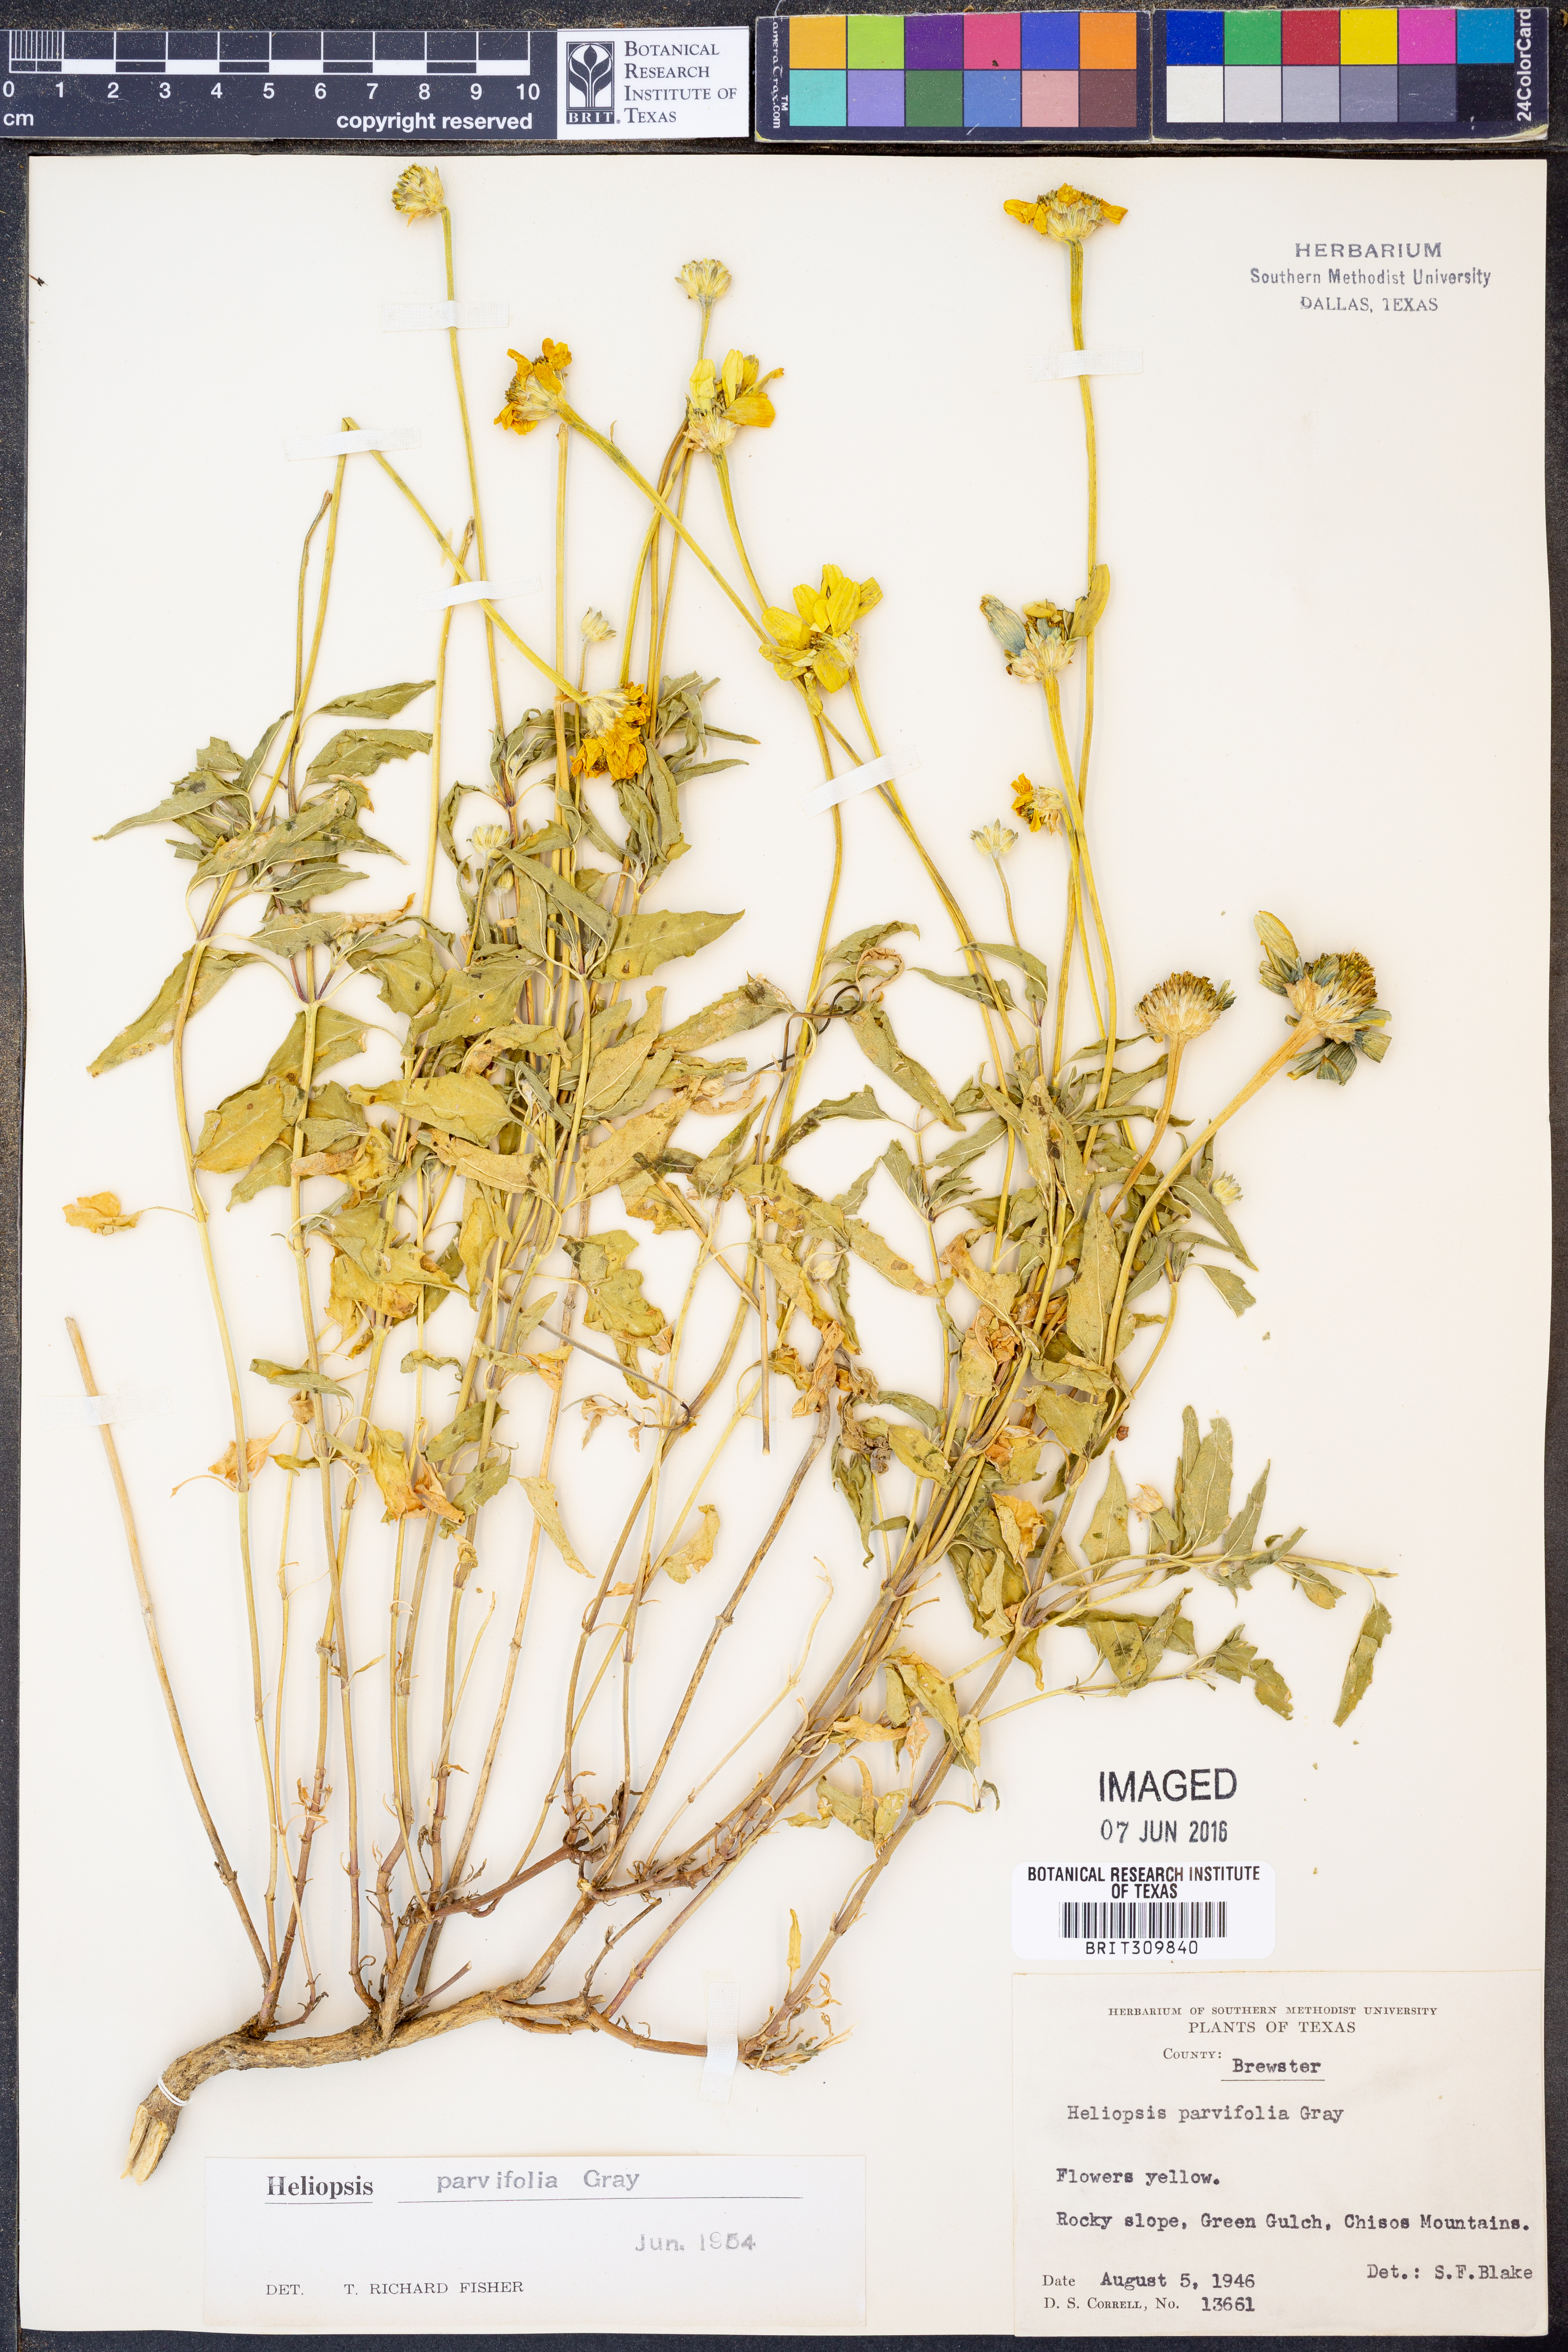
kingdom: Plantae
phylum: Tracheophyta
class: Magnoliopsida
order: Asterales
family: Asteraceae
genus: Heliopsis
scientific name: Heliopsis parvifolia
